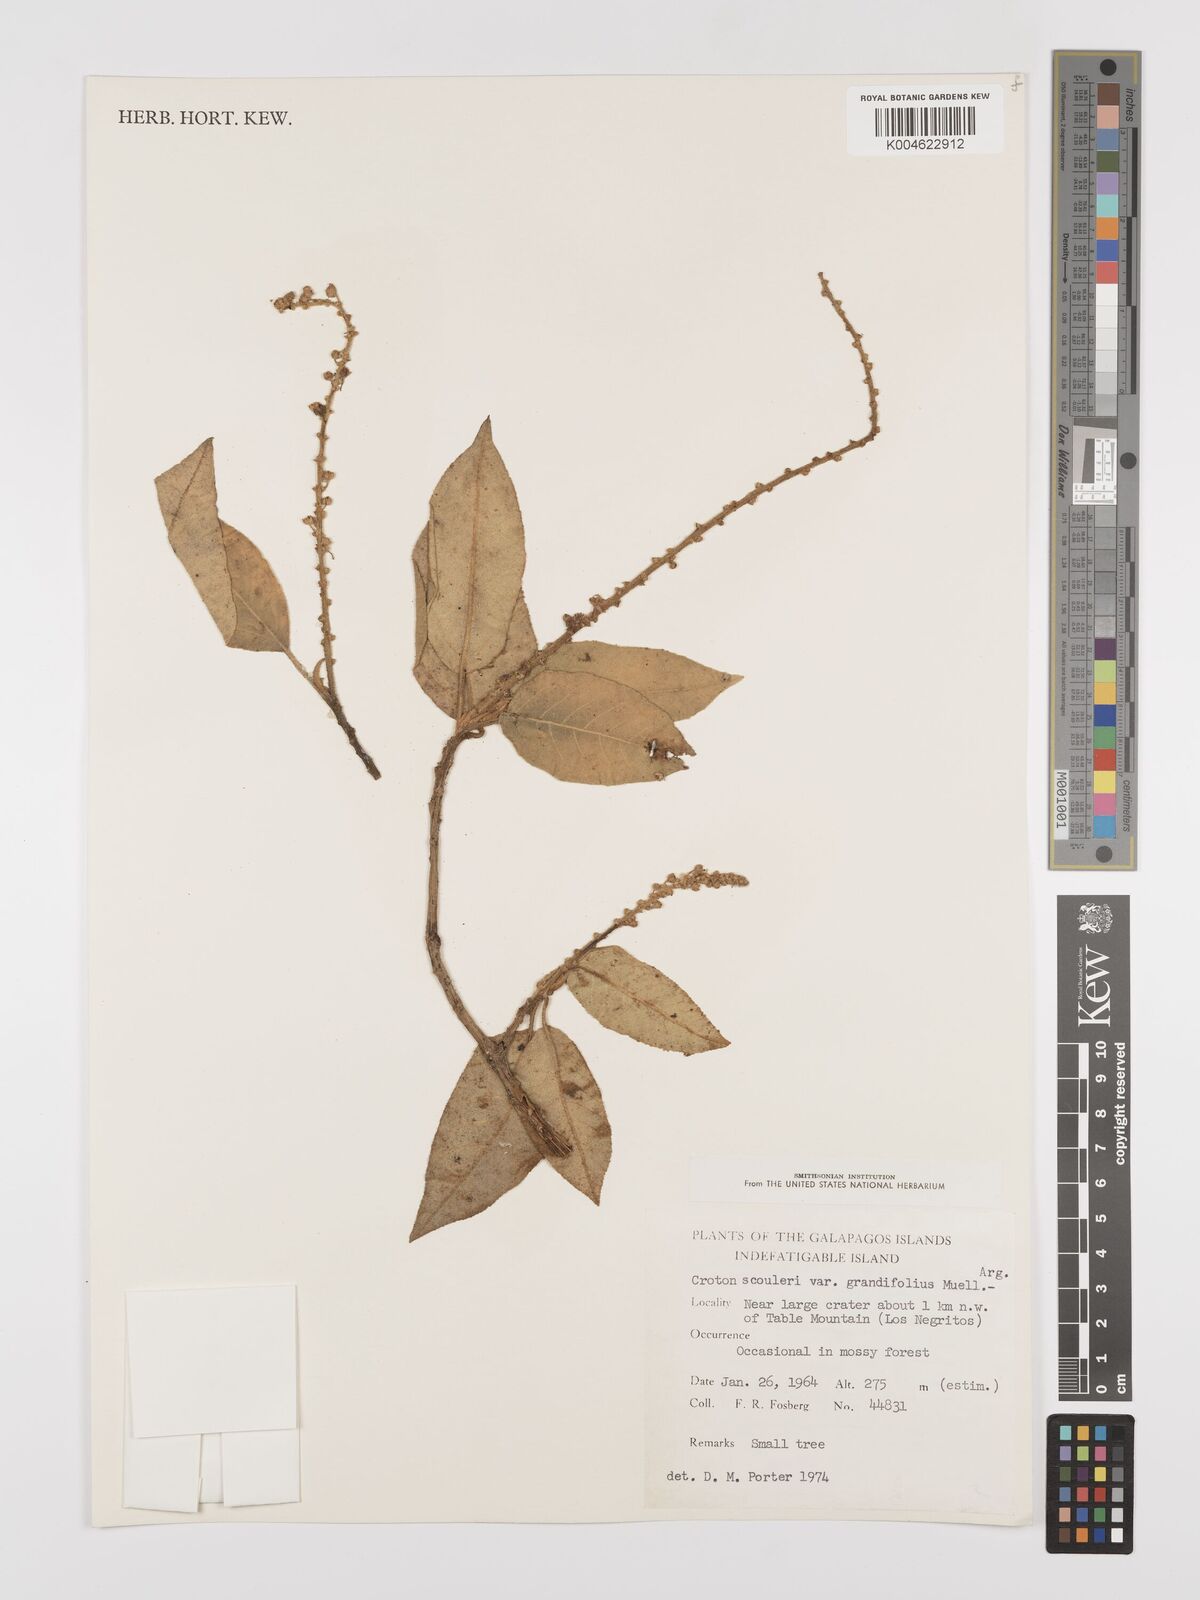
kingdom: Plantae
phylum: Tracheophyta
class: Magnoliopsida
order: Malpighiales
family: Euphorbiaceae
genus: Croton
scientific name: Croton scouleri
